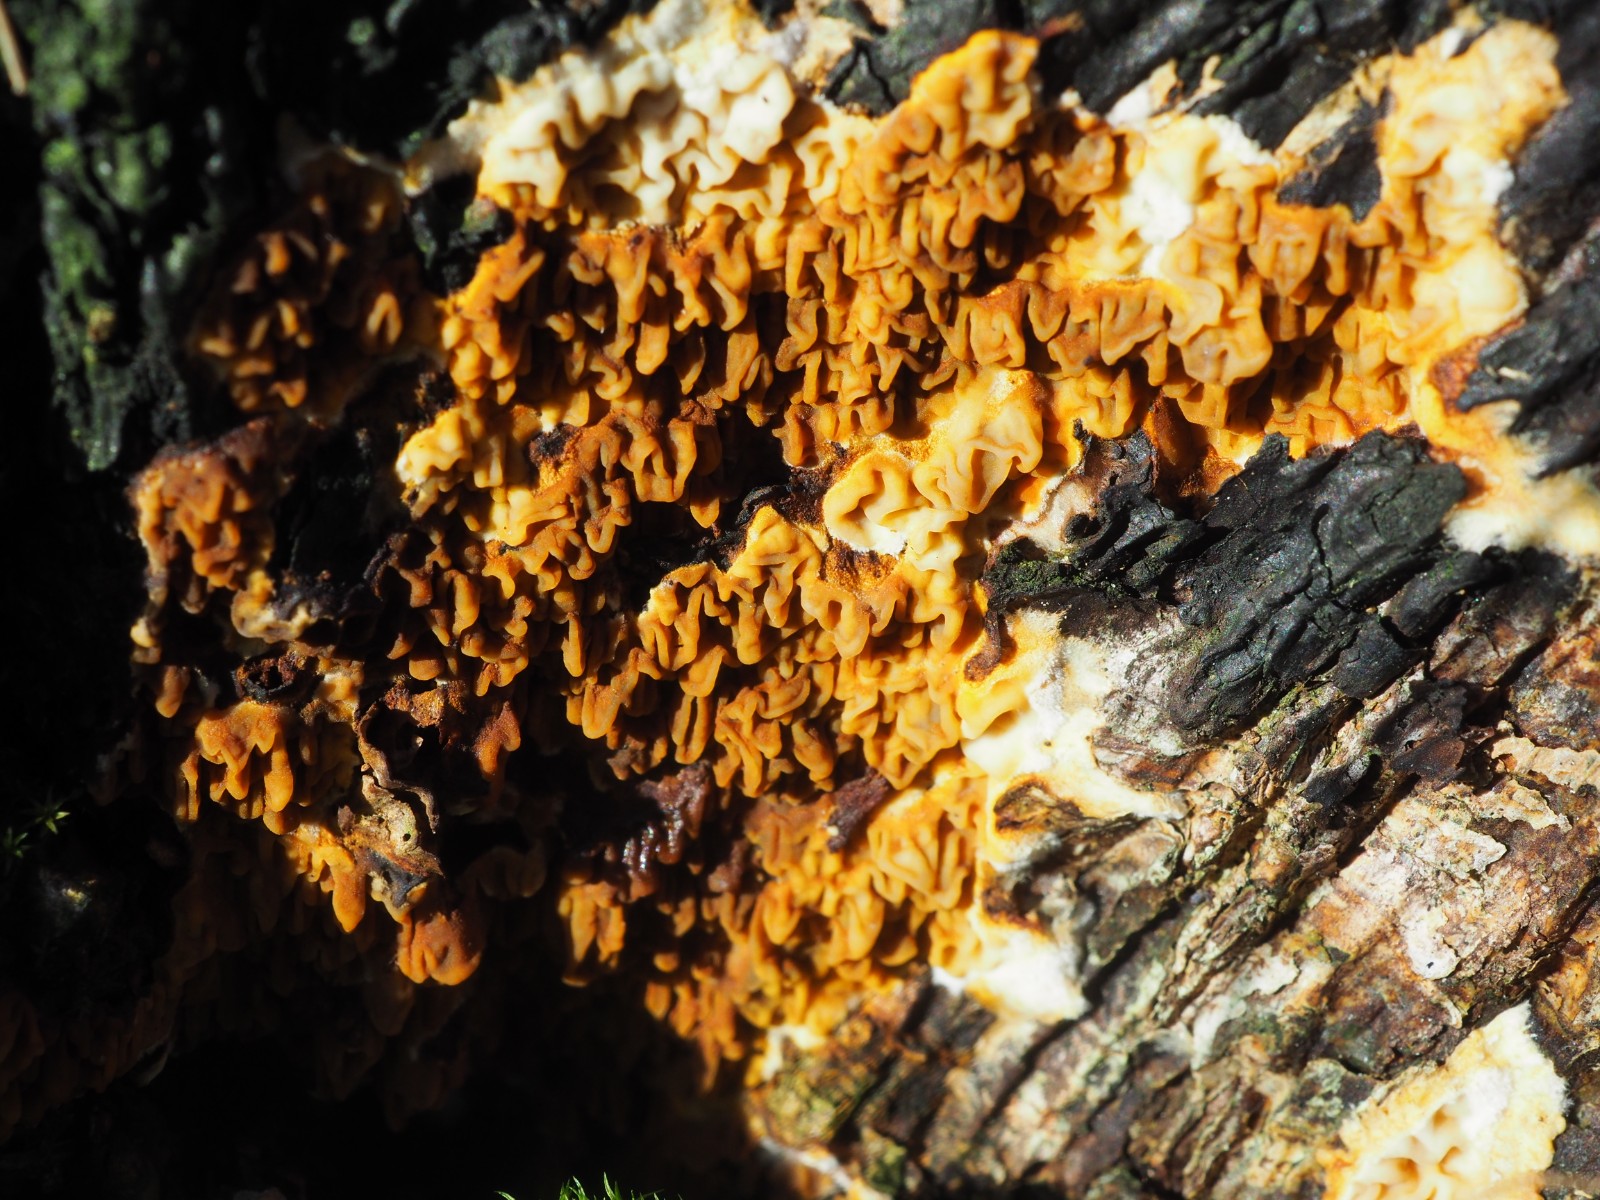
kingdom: Fungi
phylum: Basidiomycota
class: Agaricomycetes
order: Boletales
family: Serpulaceae
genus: Serpula
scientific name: Serpula himantioides
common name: tyndkødet hussvamp
